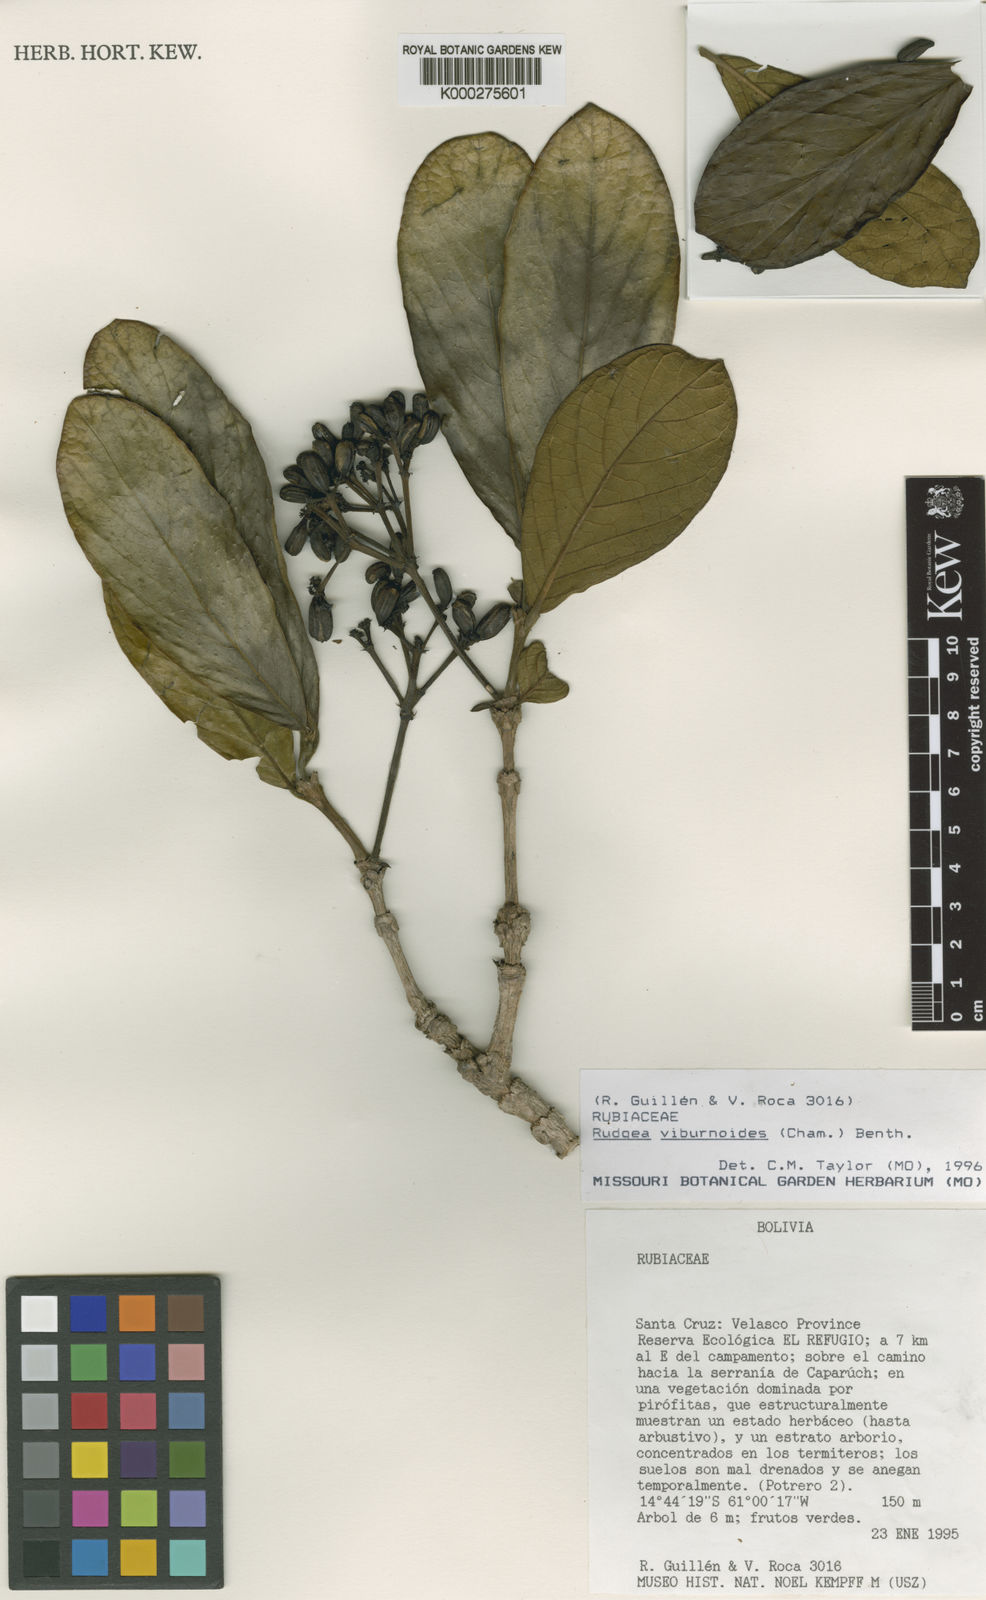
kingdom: Plantae
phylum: Tracheophyta
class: Magnoliopsida
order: Gentianales
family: Rubiaceae
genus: Rudgea
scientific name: Rudgea viburnoides
